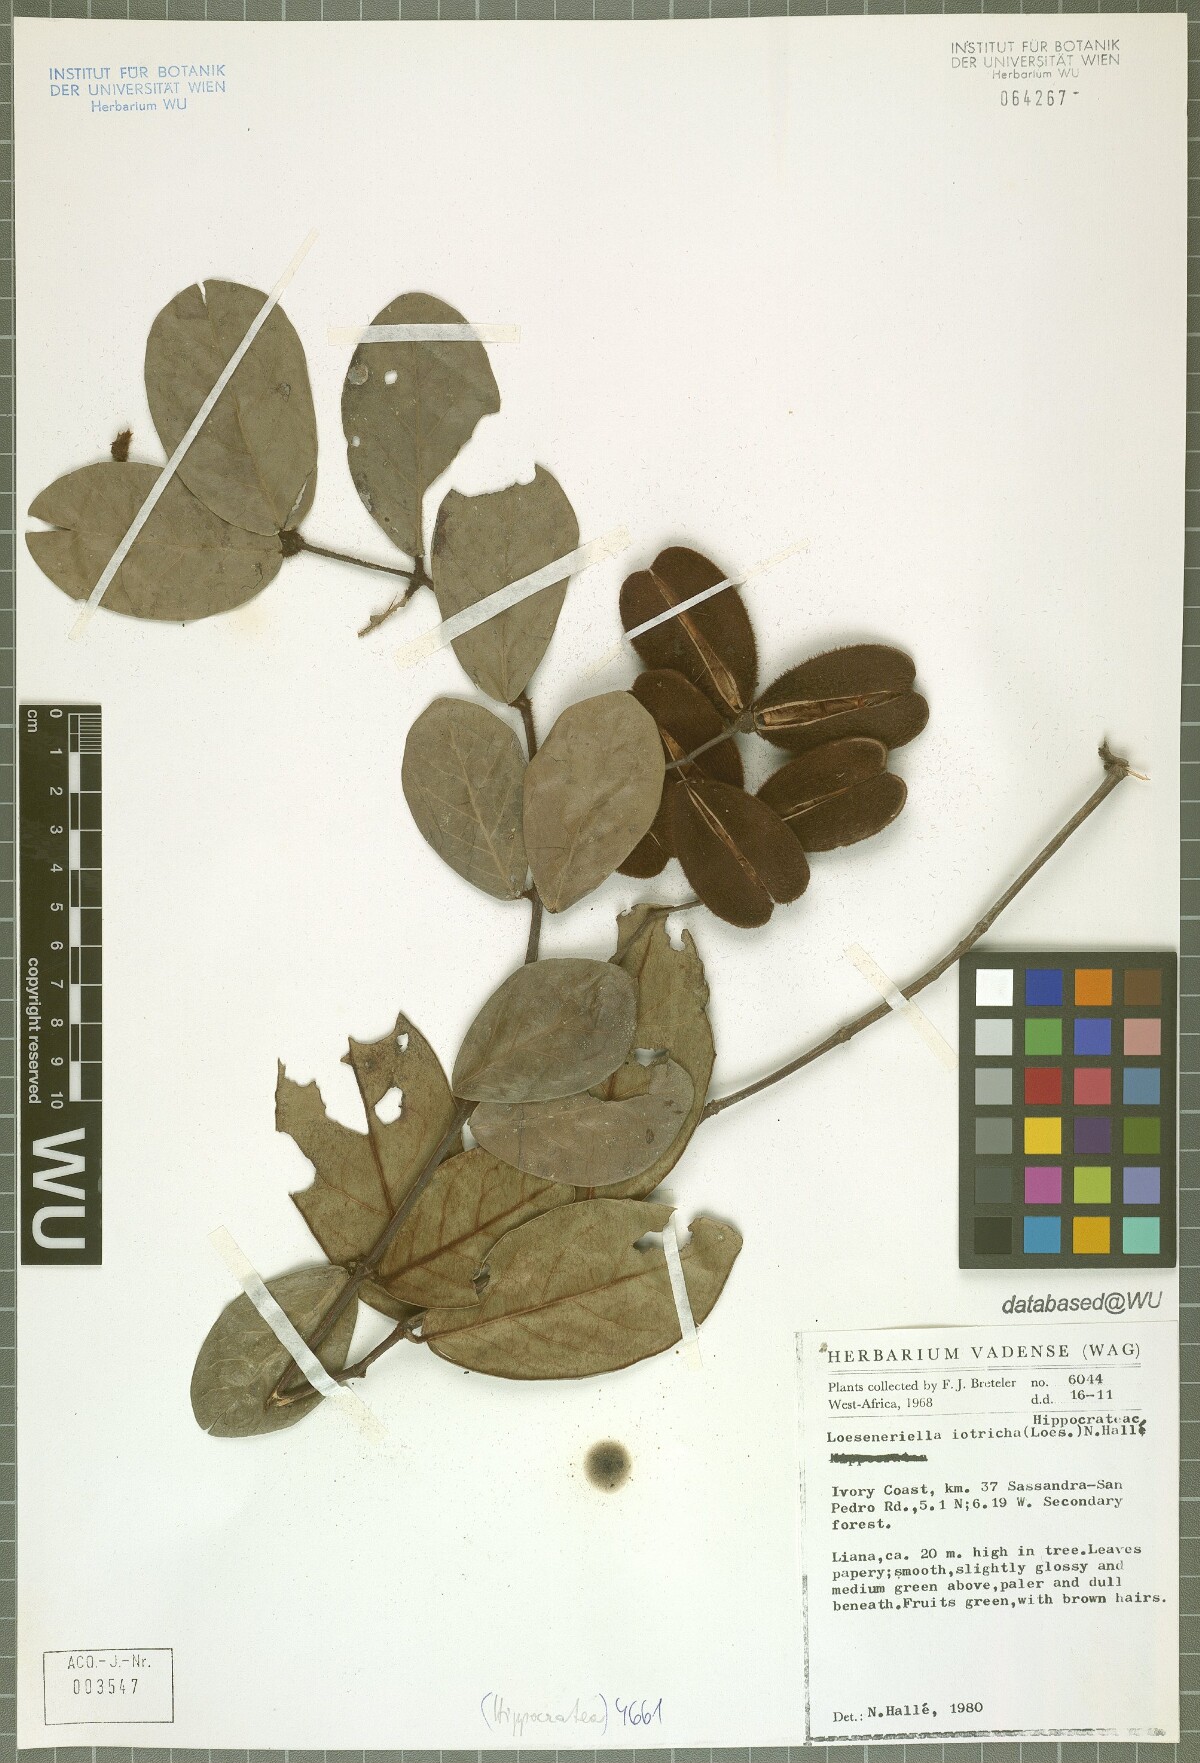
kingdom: Plantae
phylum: Tracheophyta
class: Magnoliopsida
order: Celastrales
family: Celastraceae
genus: Loeseneriella
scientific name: Loeseneriella iotricha
